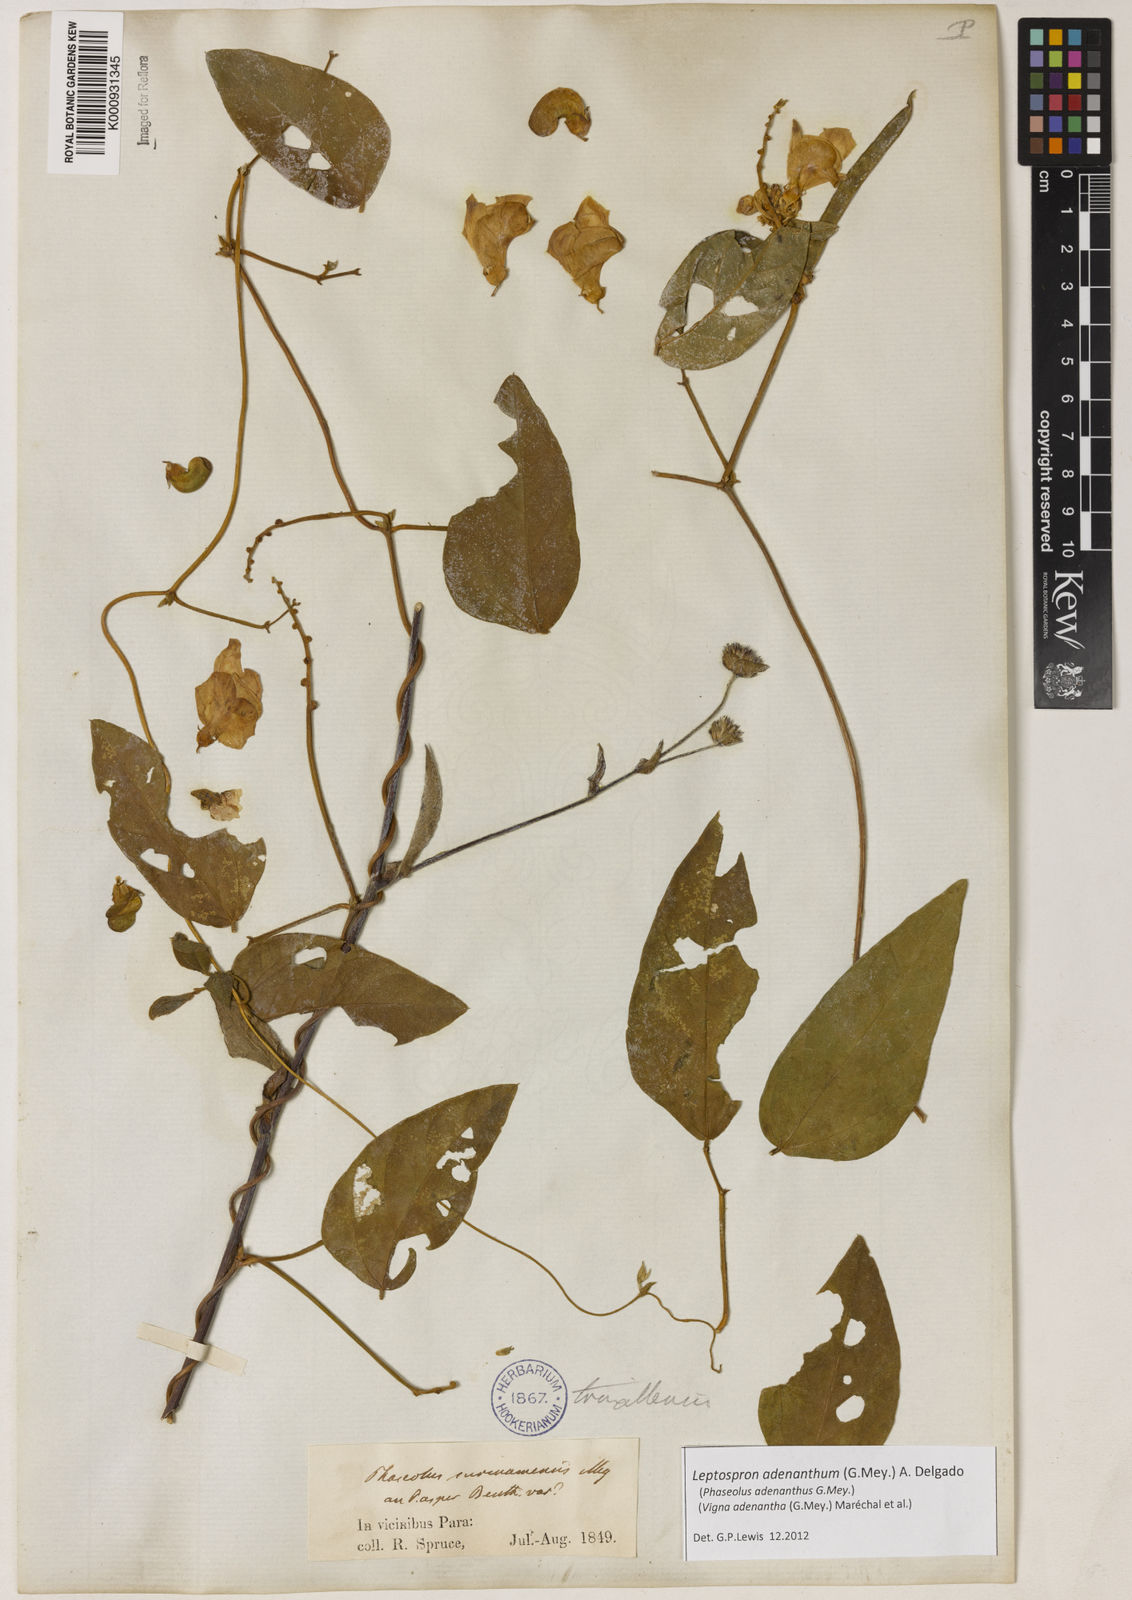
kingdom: Plantae
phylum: Tracheophyta
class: Magnoliopsida
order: Fabales
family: Fabaceae
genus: Leptospron
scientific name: Leptospron adenanthum
